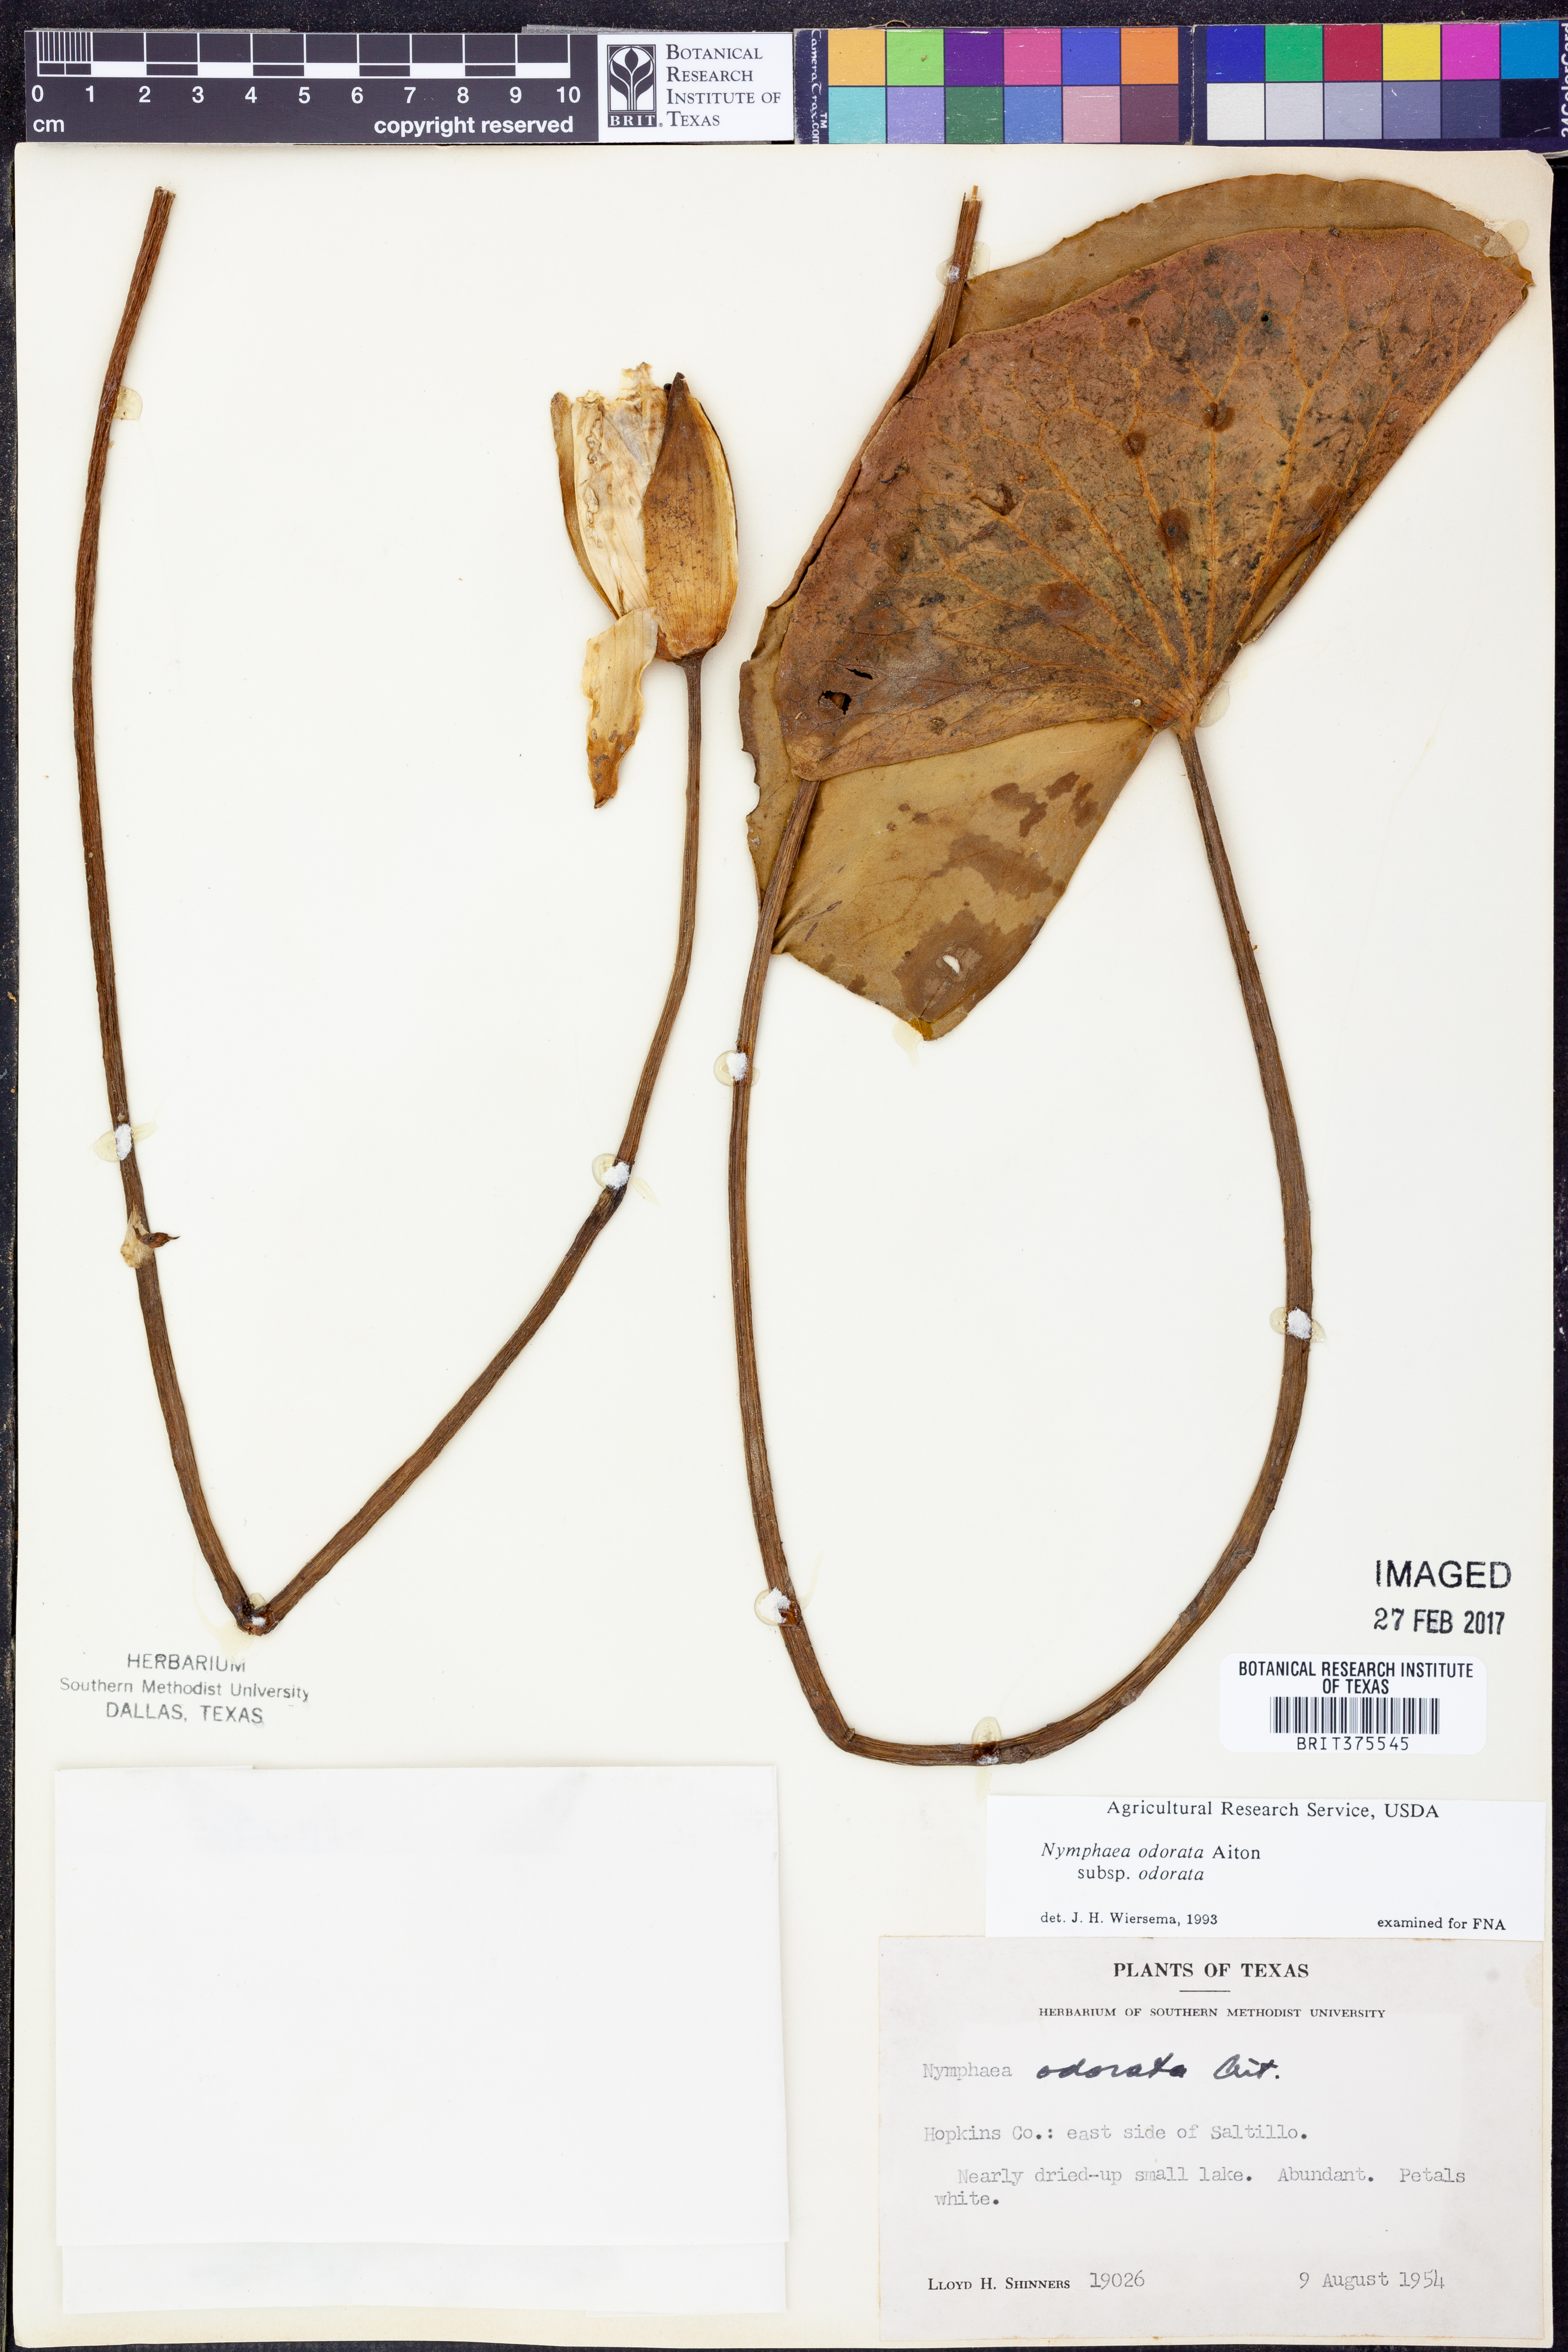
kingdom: Plantae
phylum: Tracheophyta
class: Magnoliopsida
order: Nymphaeales
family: Nymphaeaceae
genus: Nymphaea
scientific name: Nymphaea odorata
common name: Fragrant water-lily
